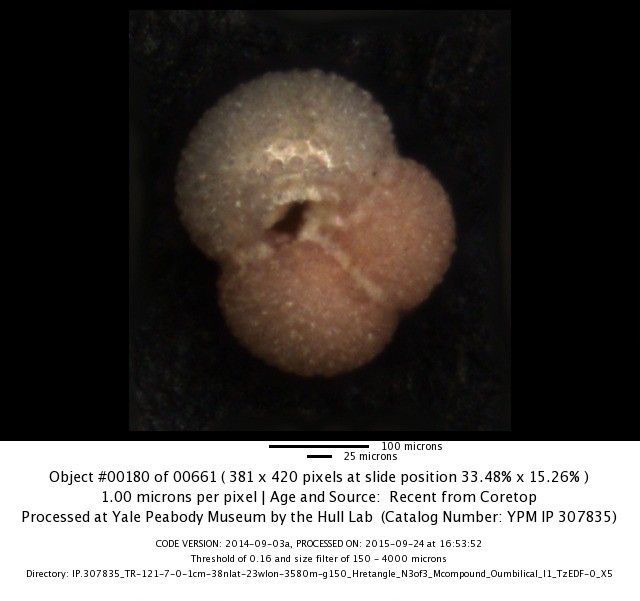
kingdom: Chromista
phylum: Foraminifera
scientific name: Foraminifera
